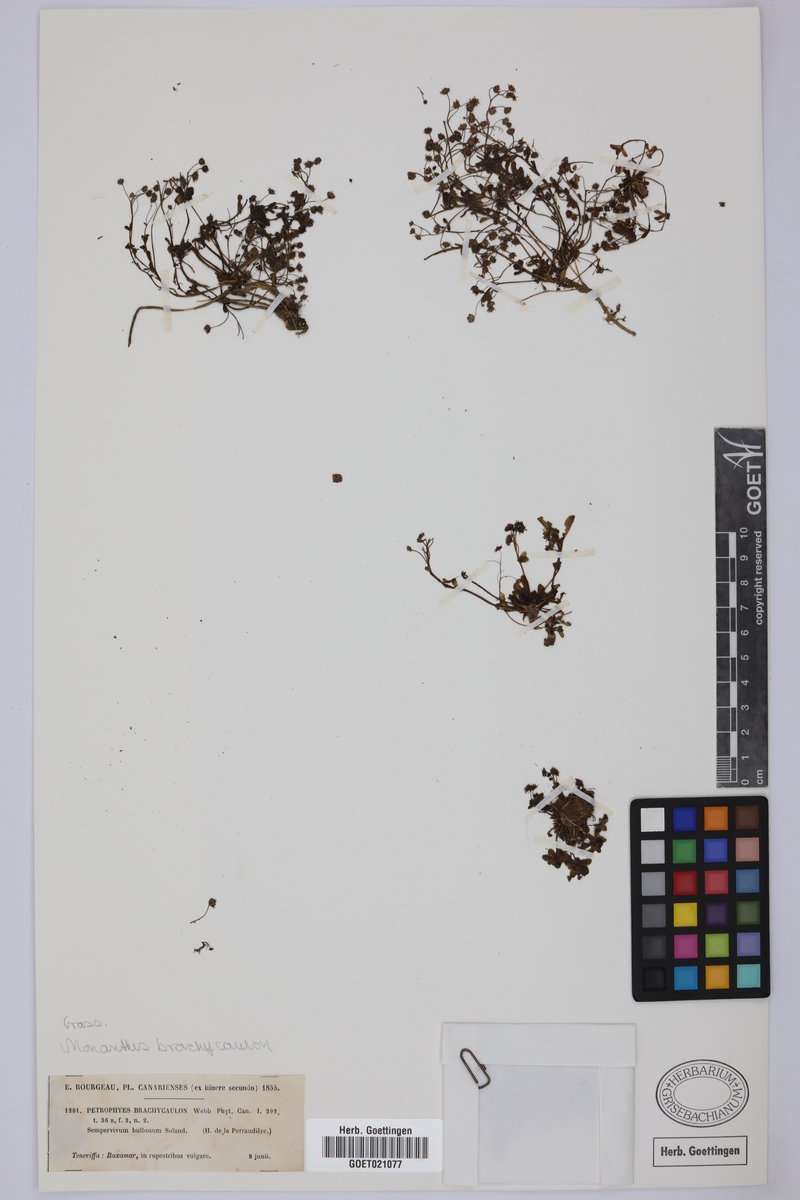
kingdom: Plantae
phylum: Tracheophyta
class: Magnoliopsida
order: Saxifragales
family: Crassulaceae
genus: Monanthes
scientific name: Monanthes brachycaulos
